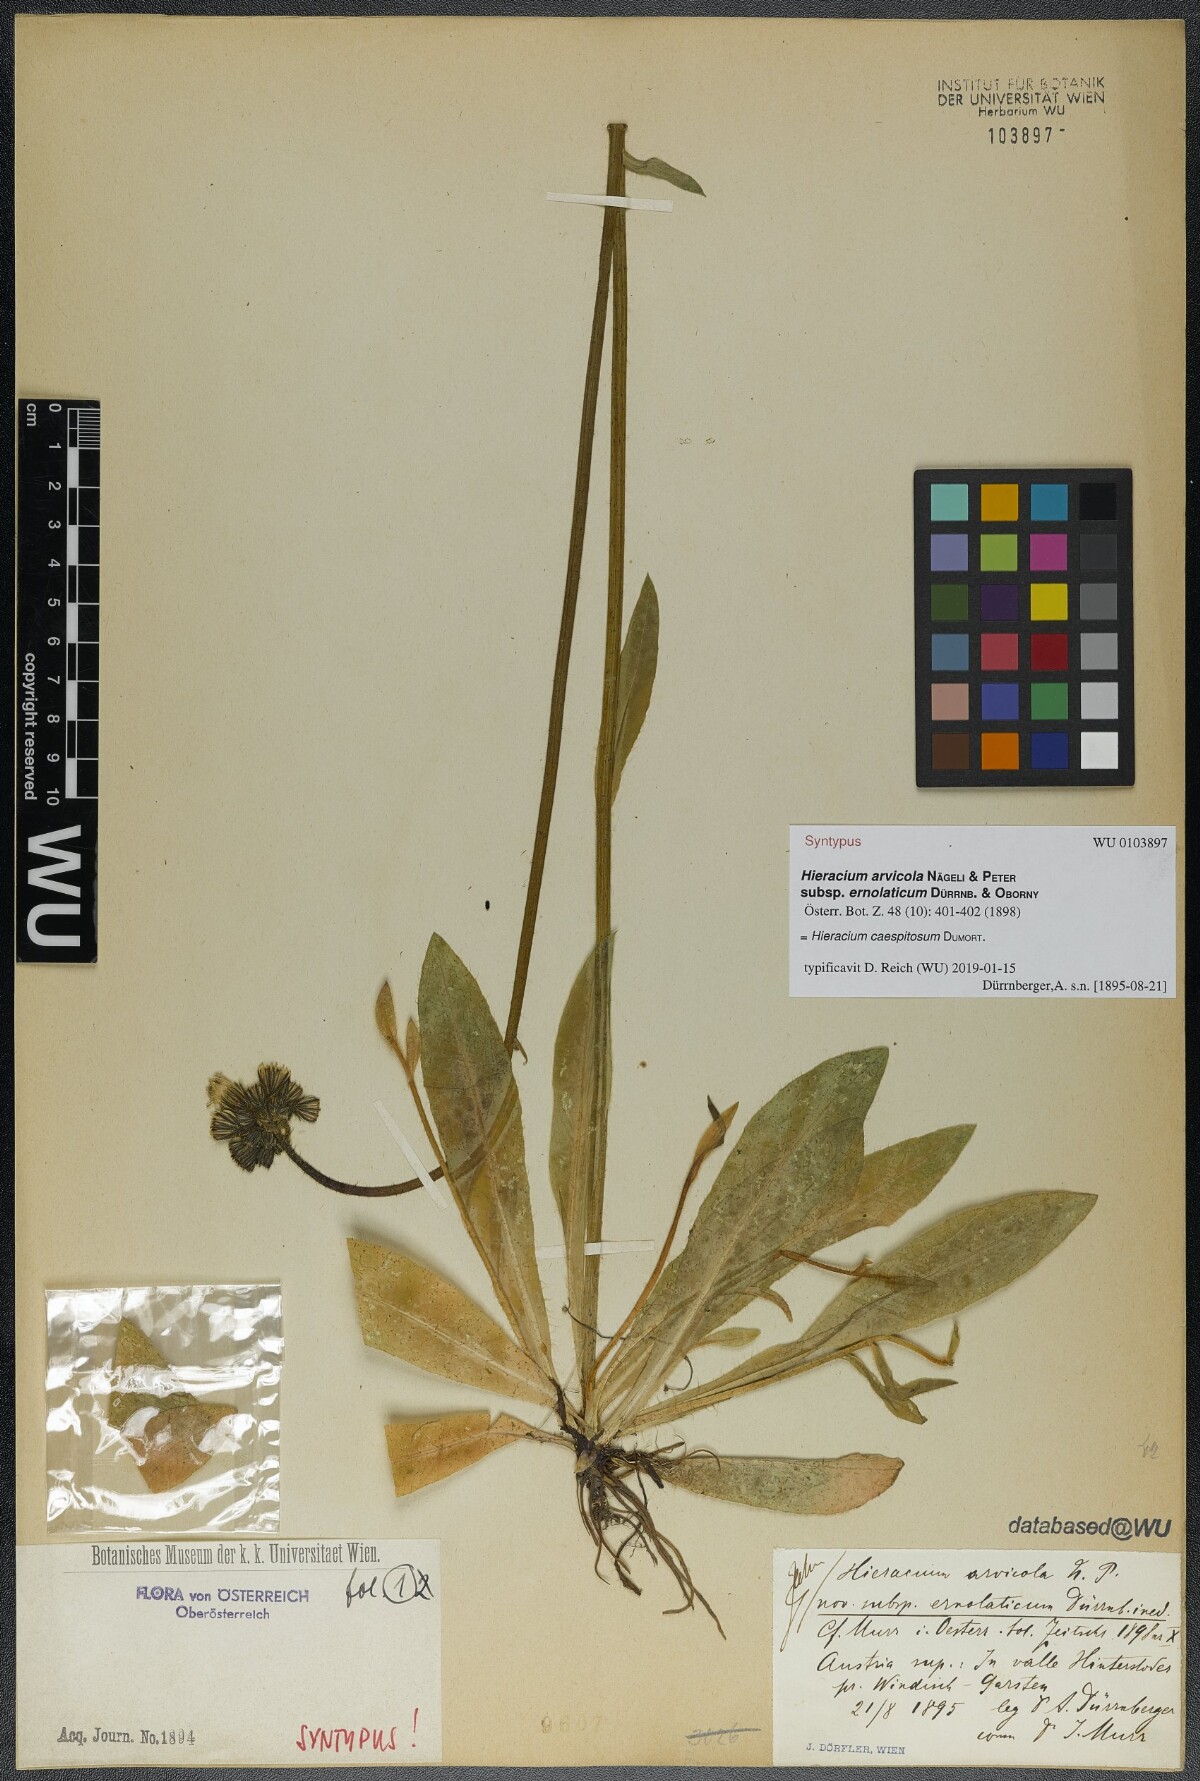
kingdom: Plantae
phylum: Tracheophyta
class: Magnoliopsida
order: Asterales
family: Asteraceae
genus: Pilosella
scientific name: Pilosella erythrochrista
